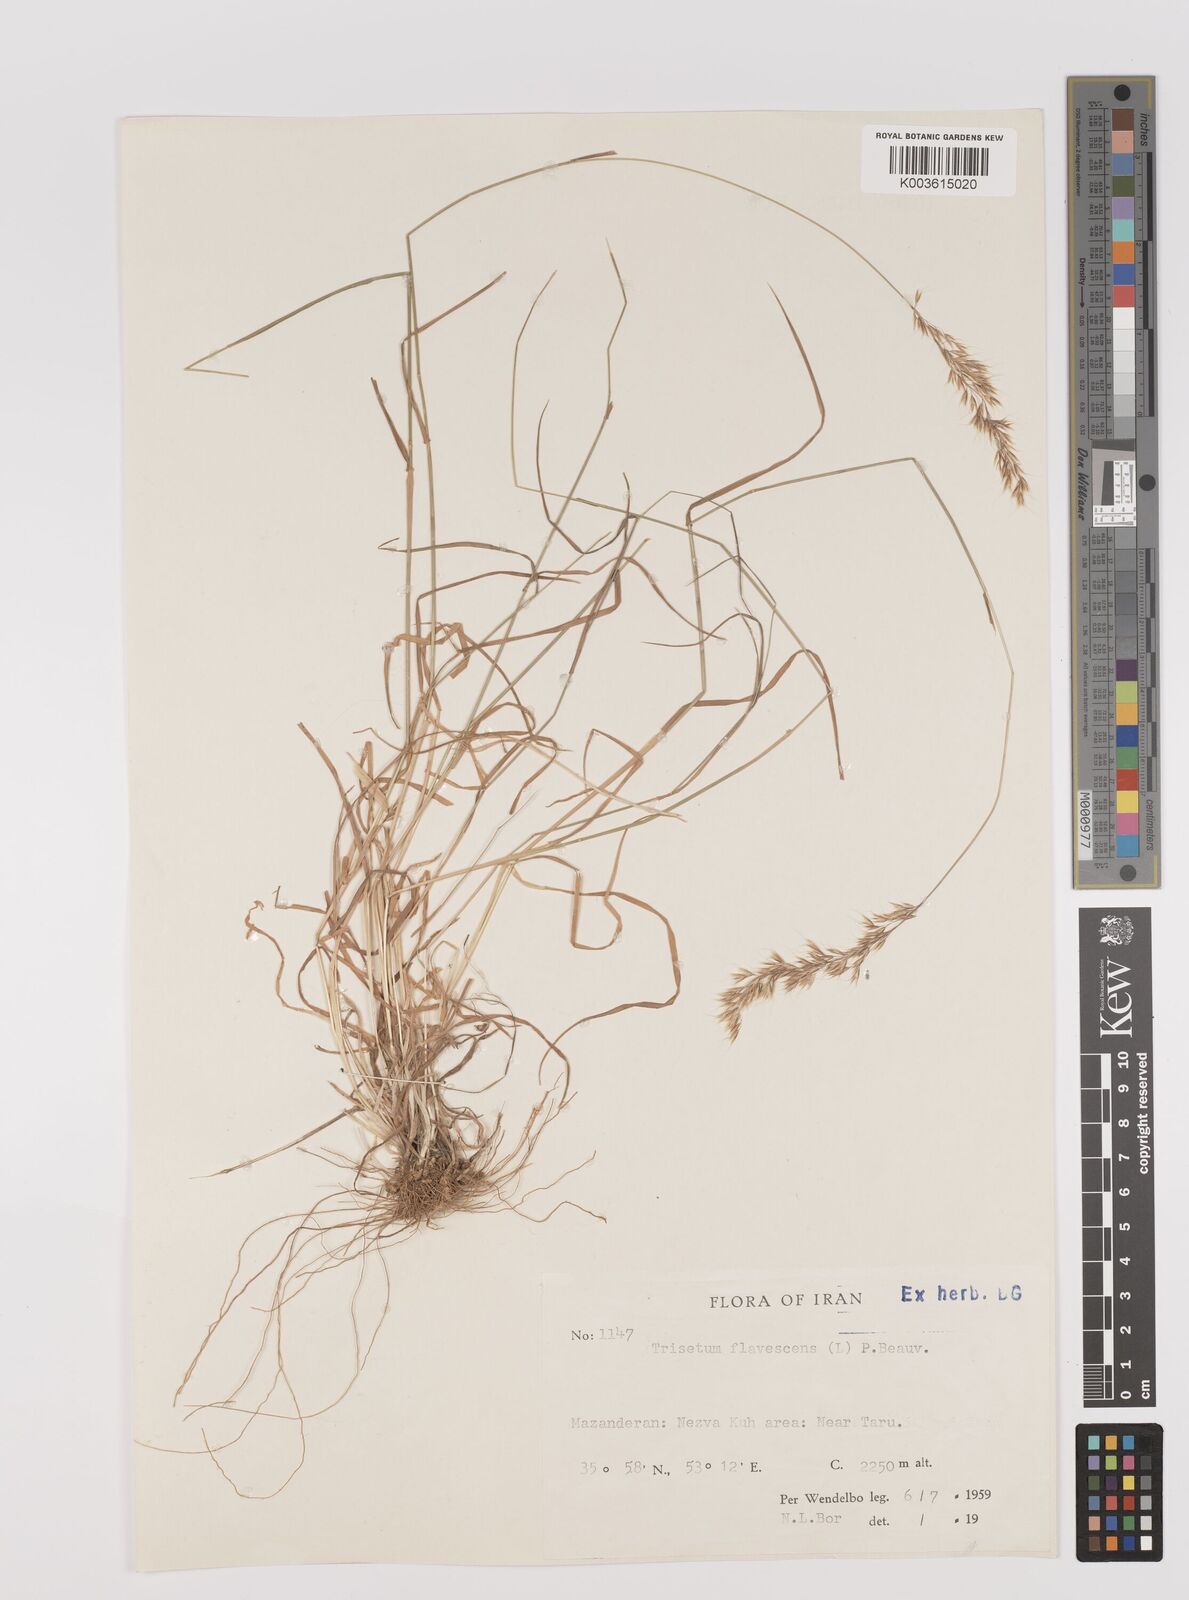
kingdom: Plantae
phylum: Tracheophyta
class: Liliopsida
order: Poales
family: Poaceae
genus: Trisetum
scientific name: Trisetum flavescens
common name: Yellow oat-grass
